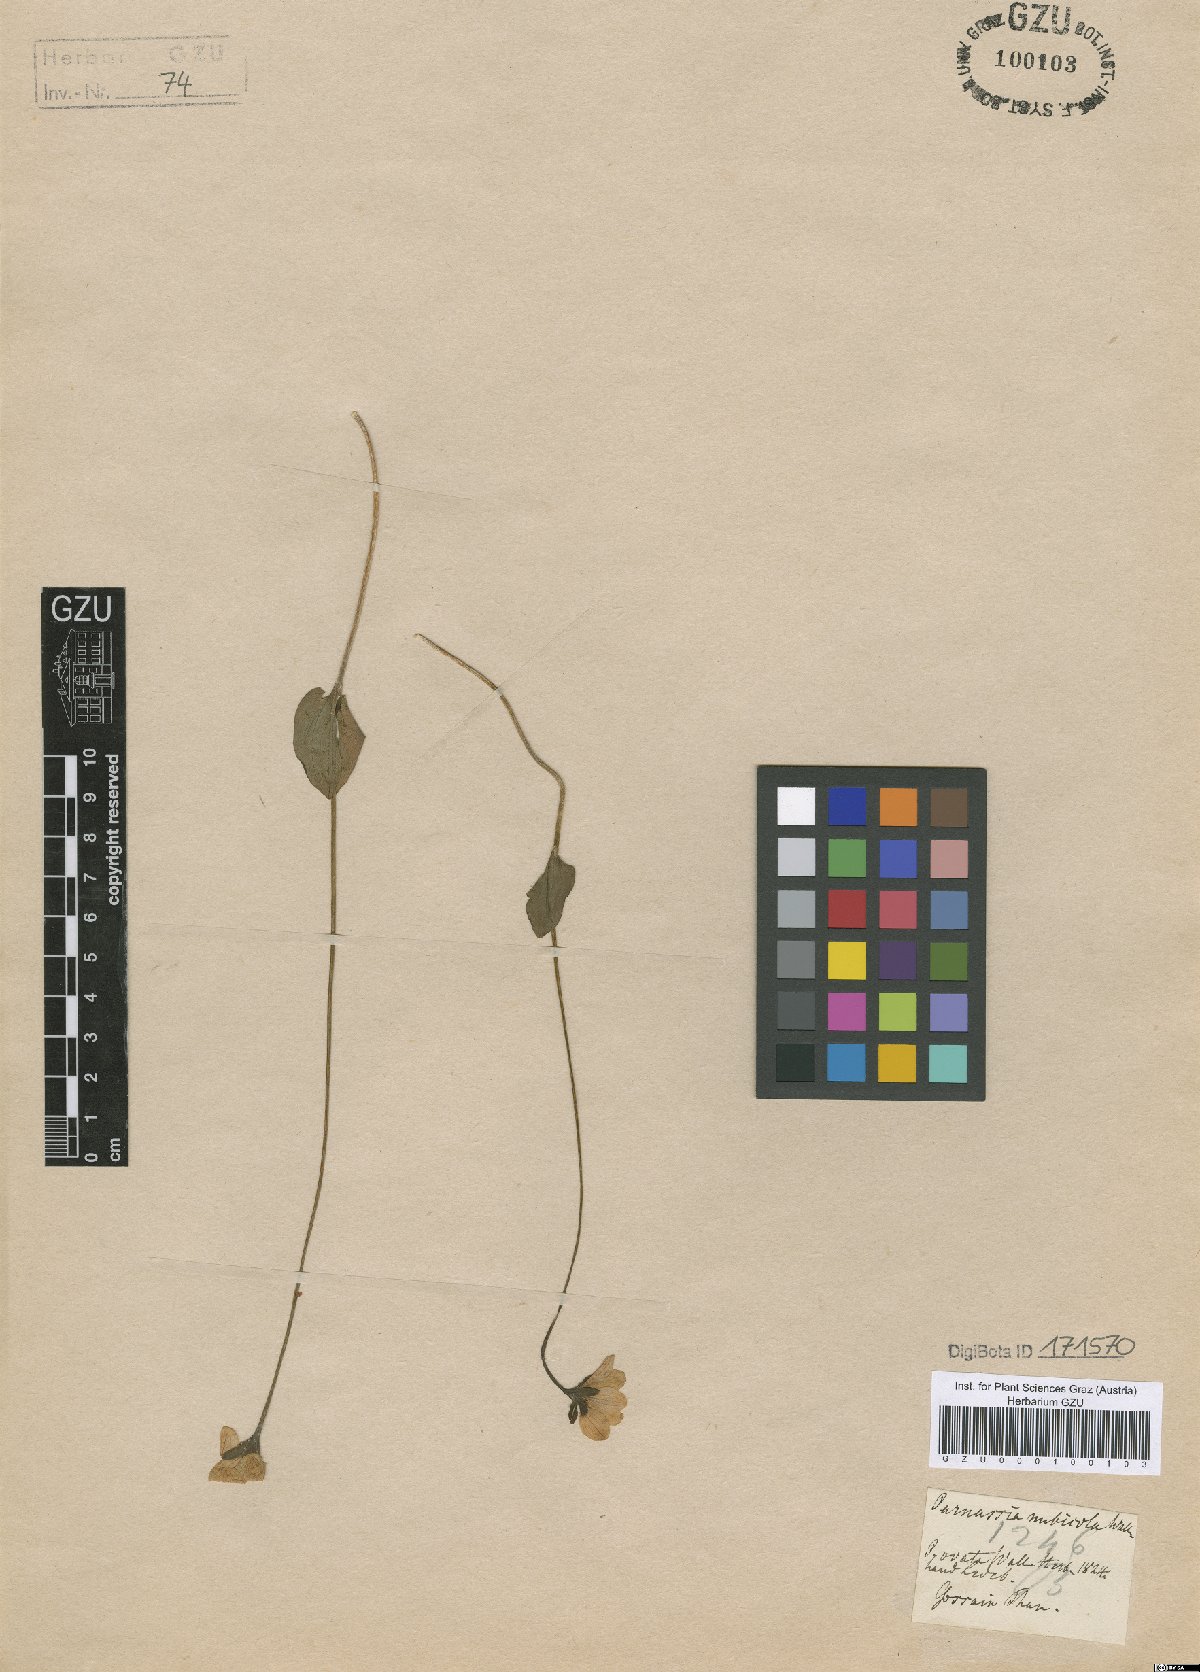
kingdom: Plantae
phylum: Tracheophyta
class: Magnoliopsida
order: Celastrales
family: Parnassiaceae
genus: Parnassia
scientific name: Parnassia nubicola
